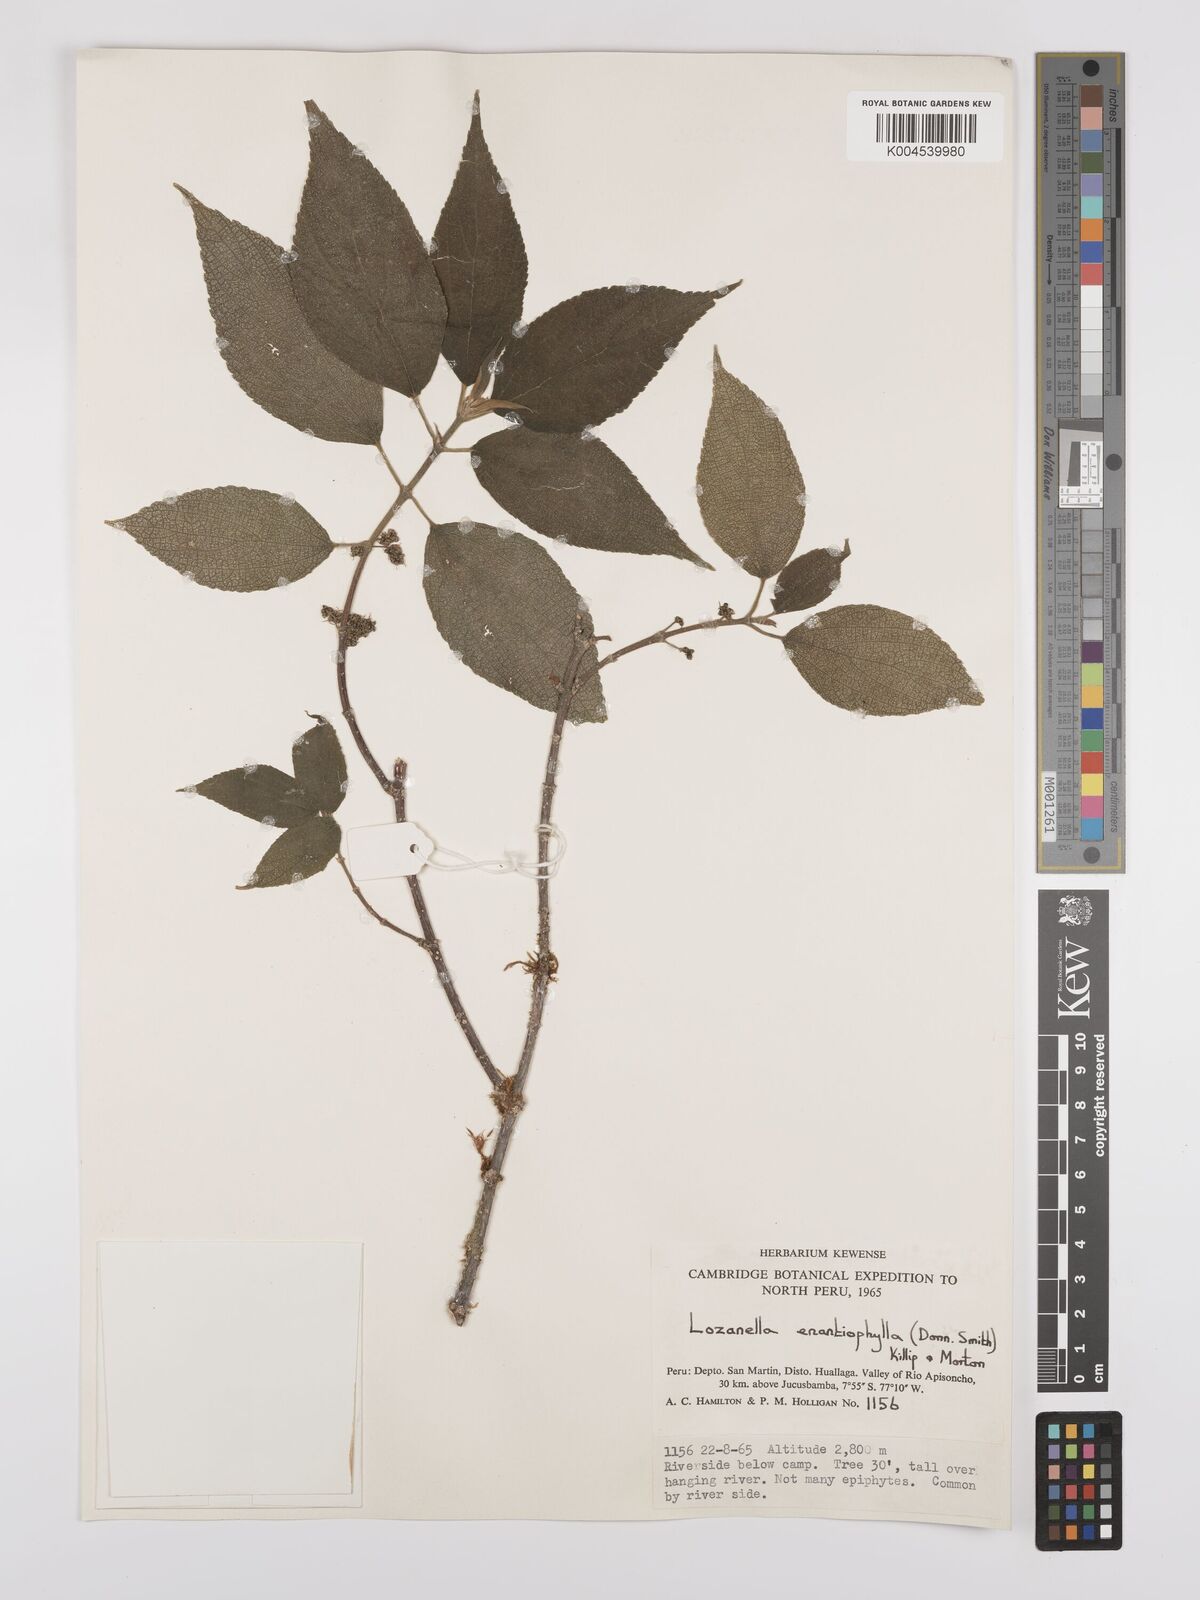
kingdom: Plantae
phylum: Tracheophyta
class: Magnoliopsida
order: Rosales
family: Cannabaceae
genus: Lozanella
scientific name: Lozanella enantiophylla
